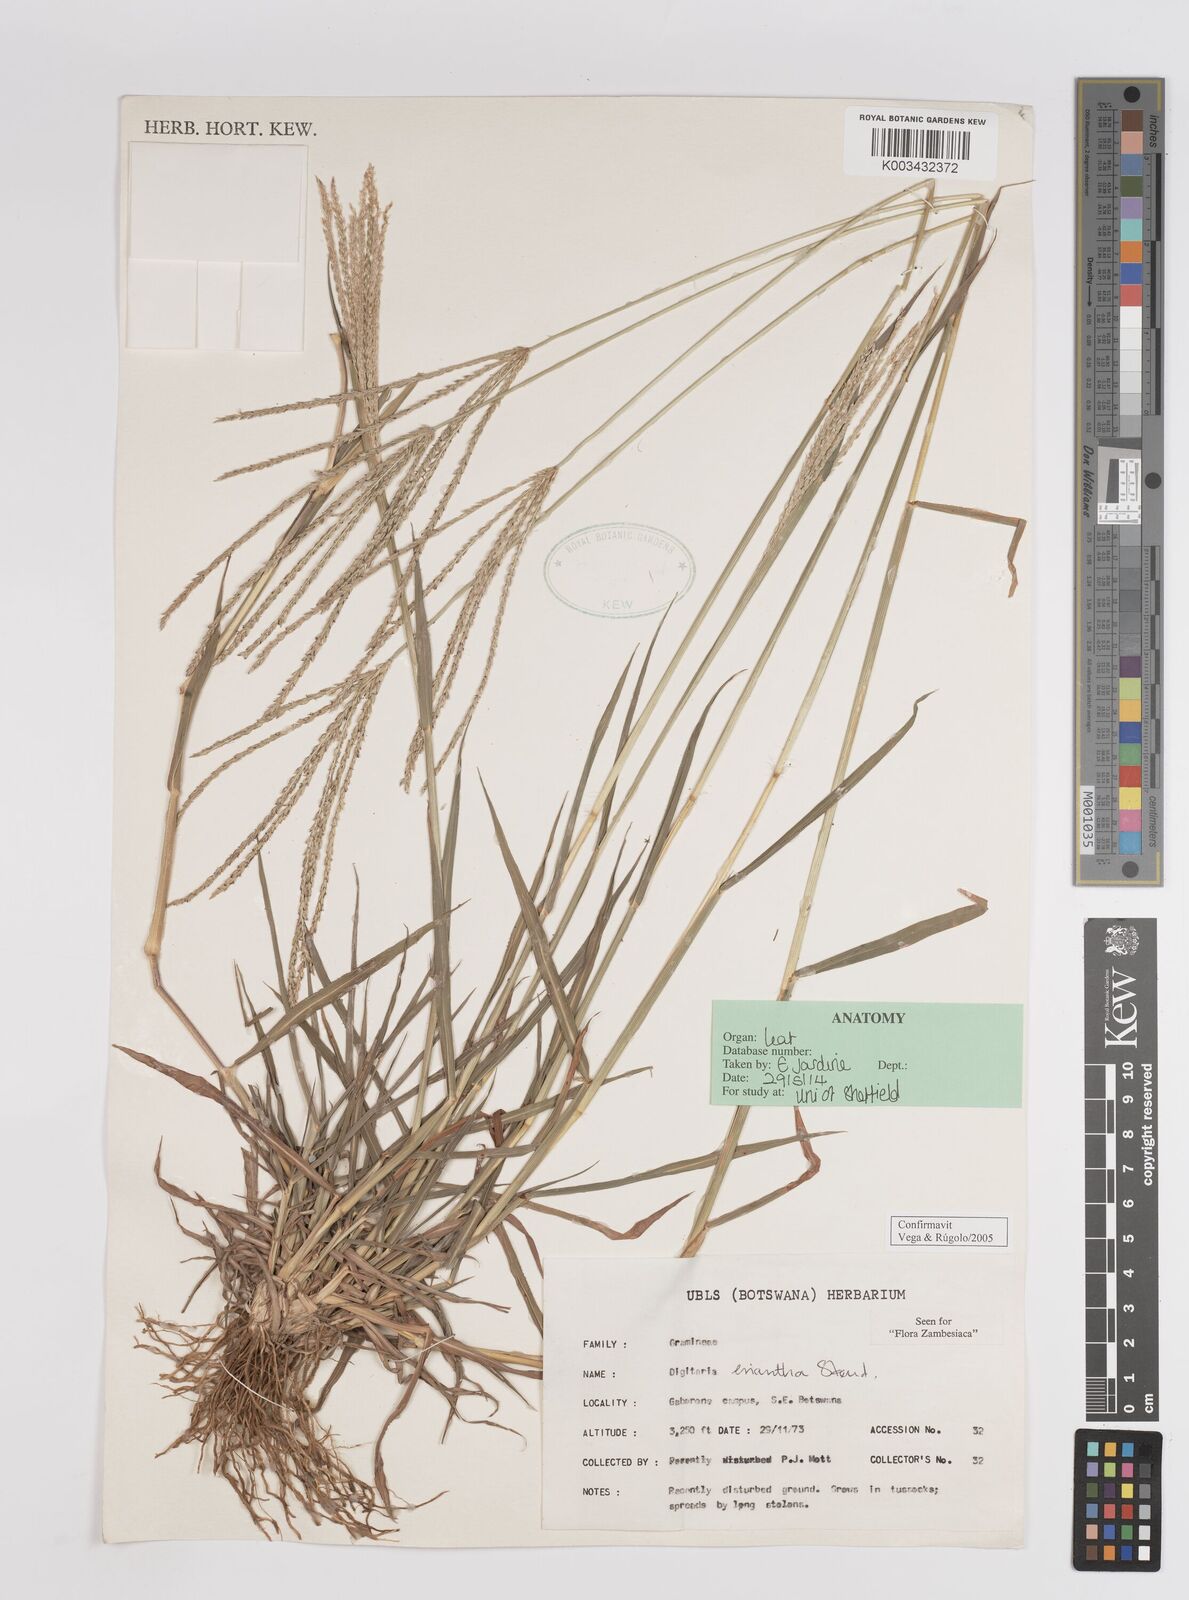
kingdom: Plantae
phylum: Tracheophyta
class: Liliopsida
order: Poales
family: Poaceae
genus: Digitaria
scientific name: Digitaria eriantha
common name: Digitgrass
